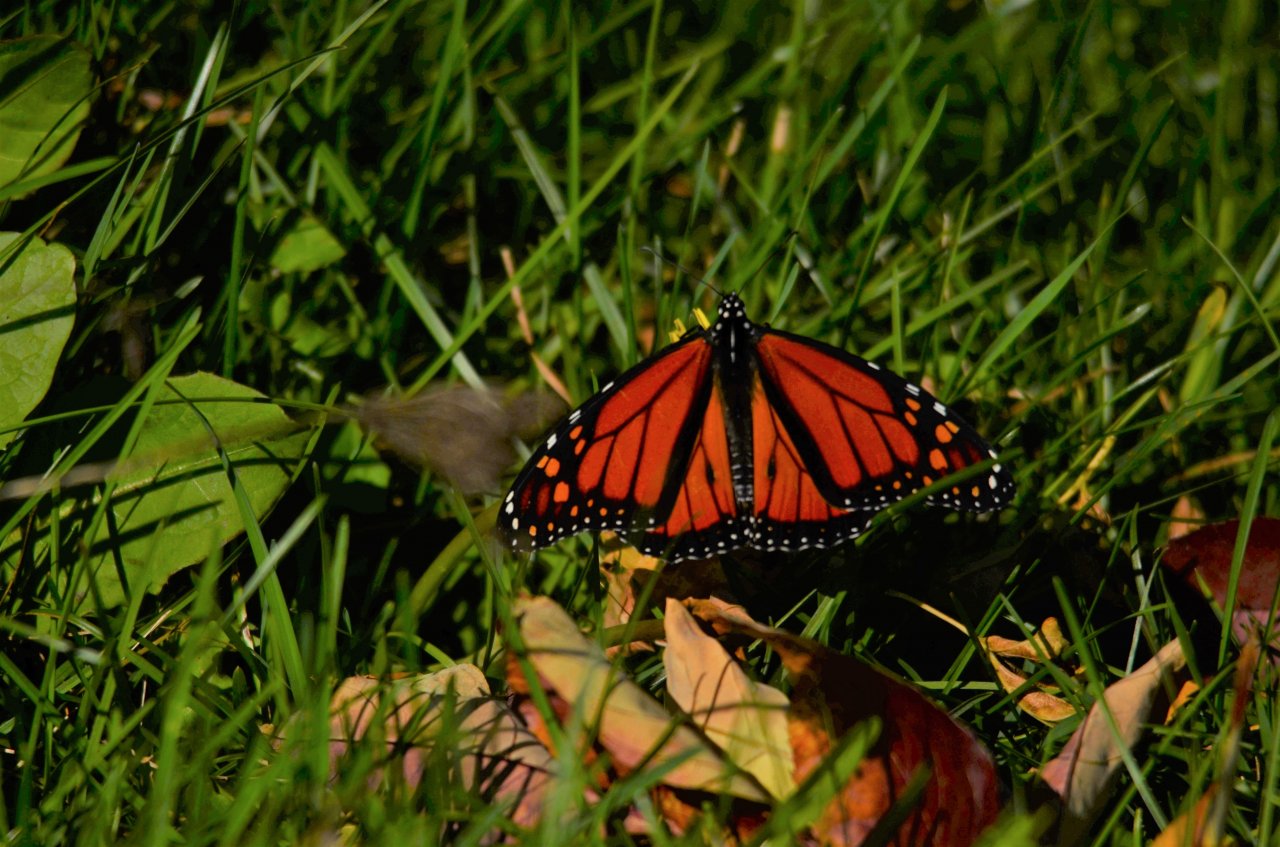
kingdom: Animalia
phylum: Arthropoda
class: Insecta
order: Lepidoptera
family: Nymphalidae
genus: Danaus
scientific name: Danaus plexippus
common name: Monarch
